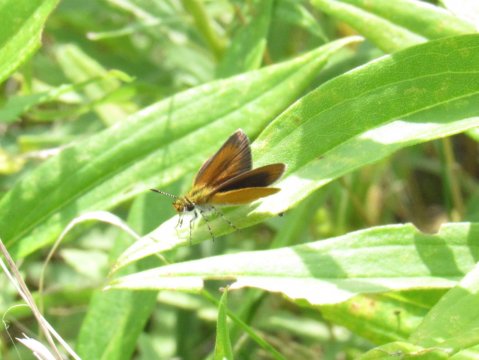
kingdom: Animalia
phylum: Arthropoda
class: Insecta
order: Lepidoptera
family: Hesperiidae
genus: Ancyloxypha
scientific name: Ancyloxypha numitor
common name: Least Skipper
